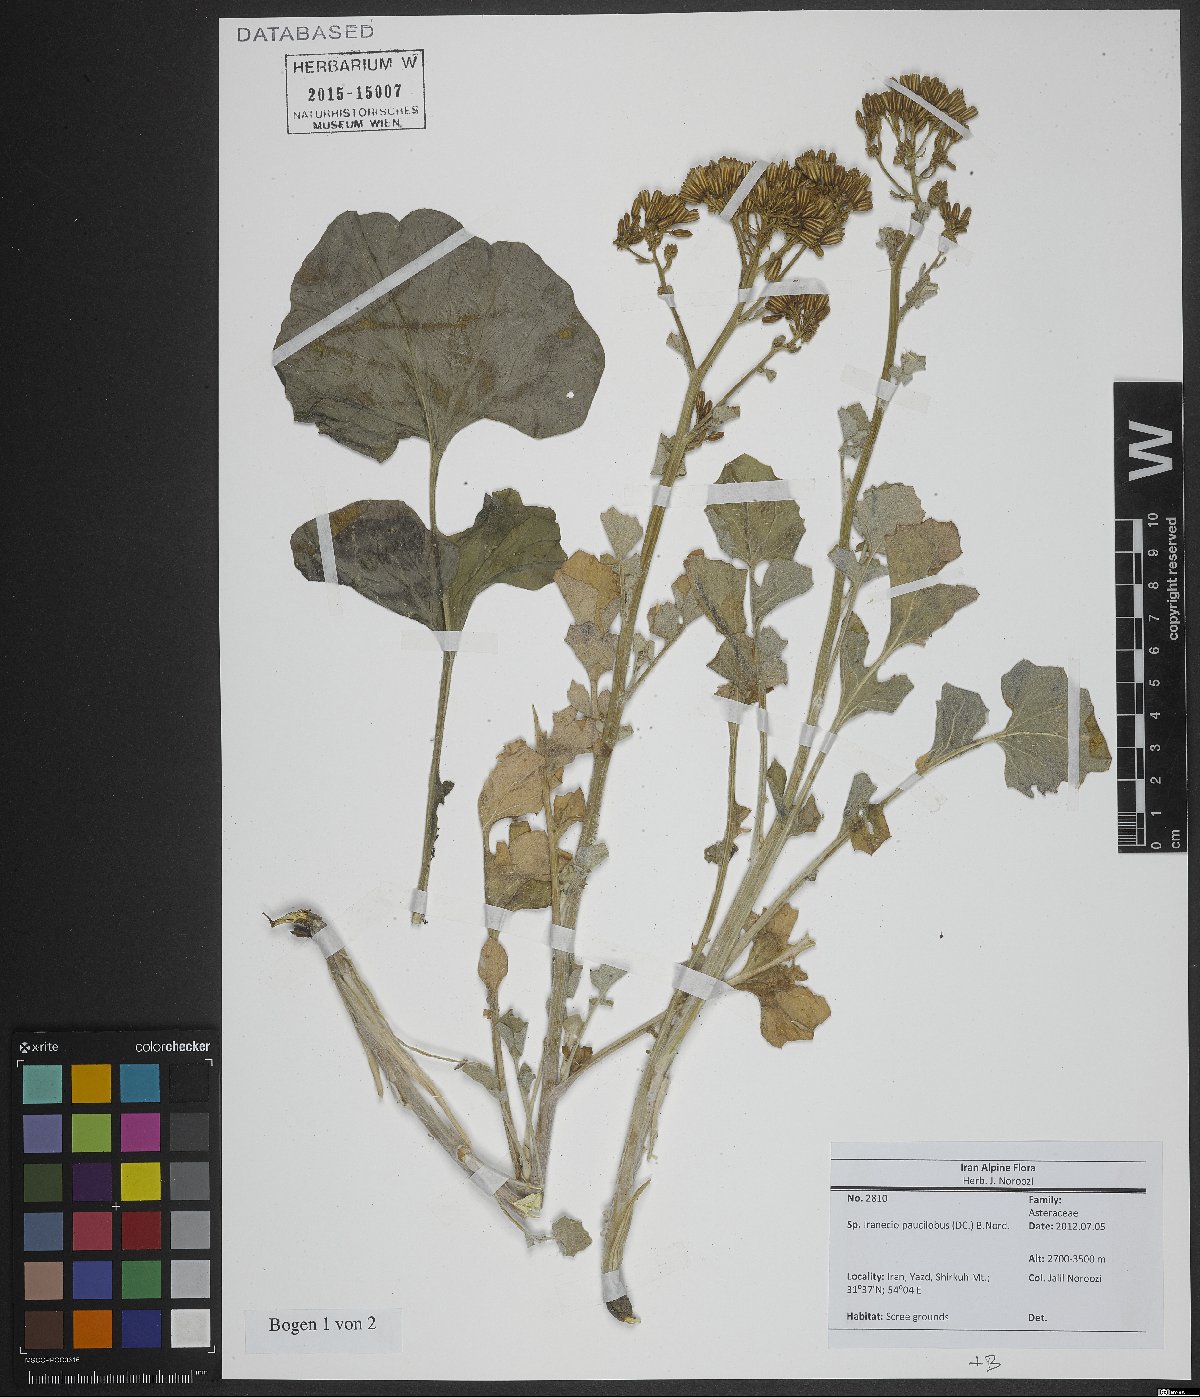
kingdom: Plantae
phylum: Tracheophyta
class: Magnoliopsida
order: Asterales
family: Asteraceae
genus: Iranecio
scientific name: Iranecio paucilobus
